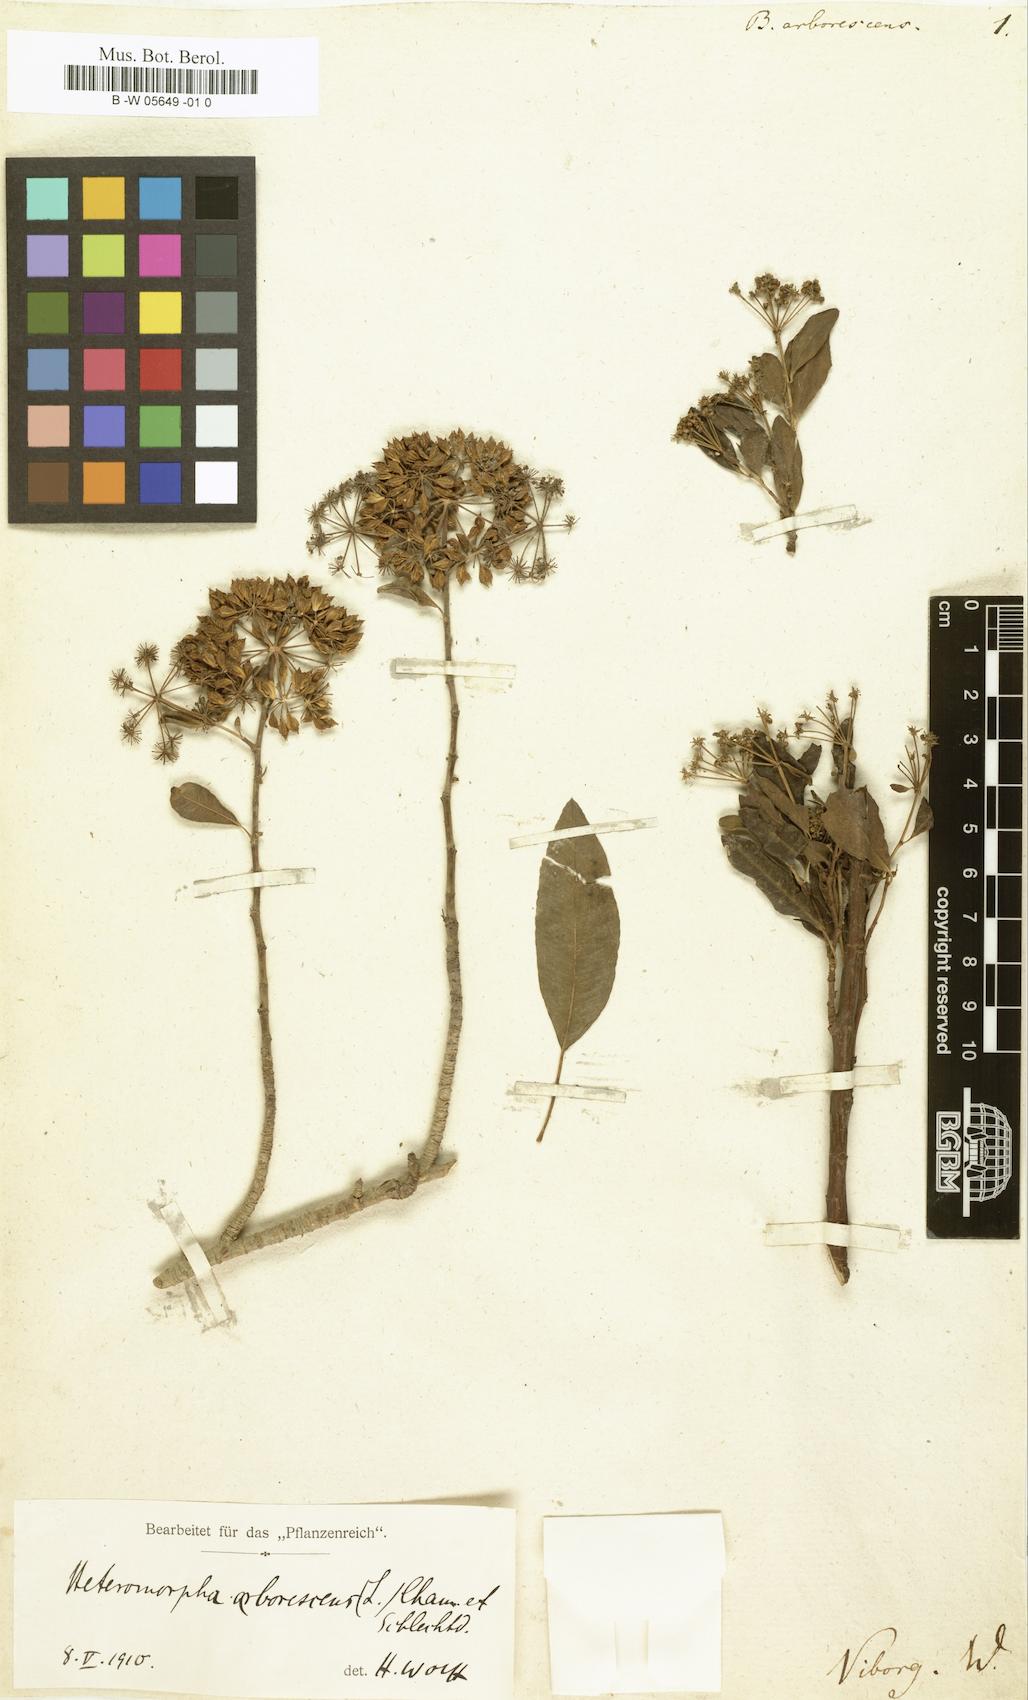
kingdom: Plantae
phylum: Tracheophyta
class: Magnoliopsida
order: Apiales
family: Apiaceae
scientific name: Apiaceae
